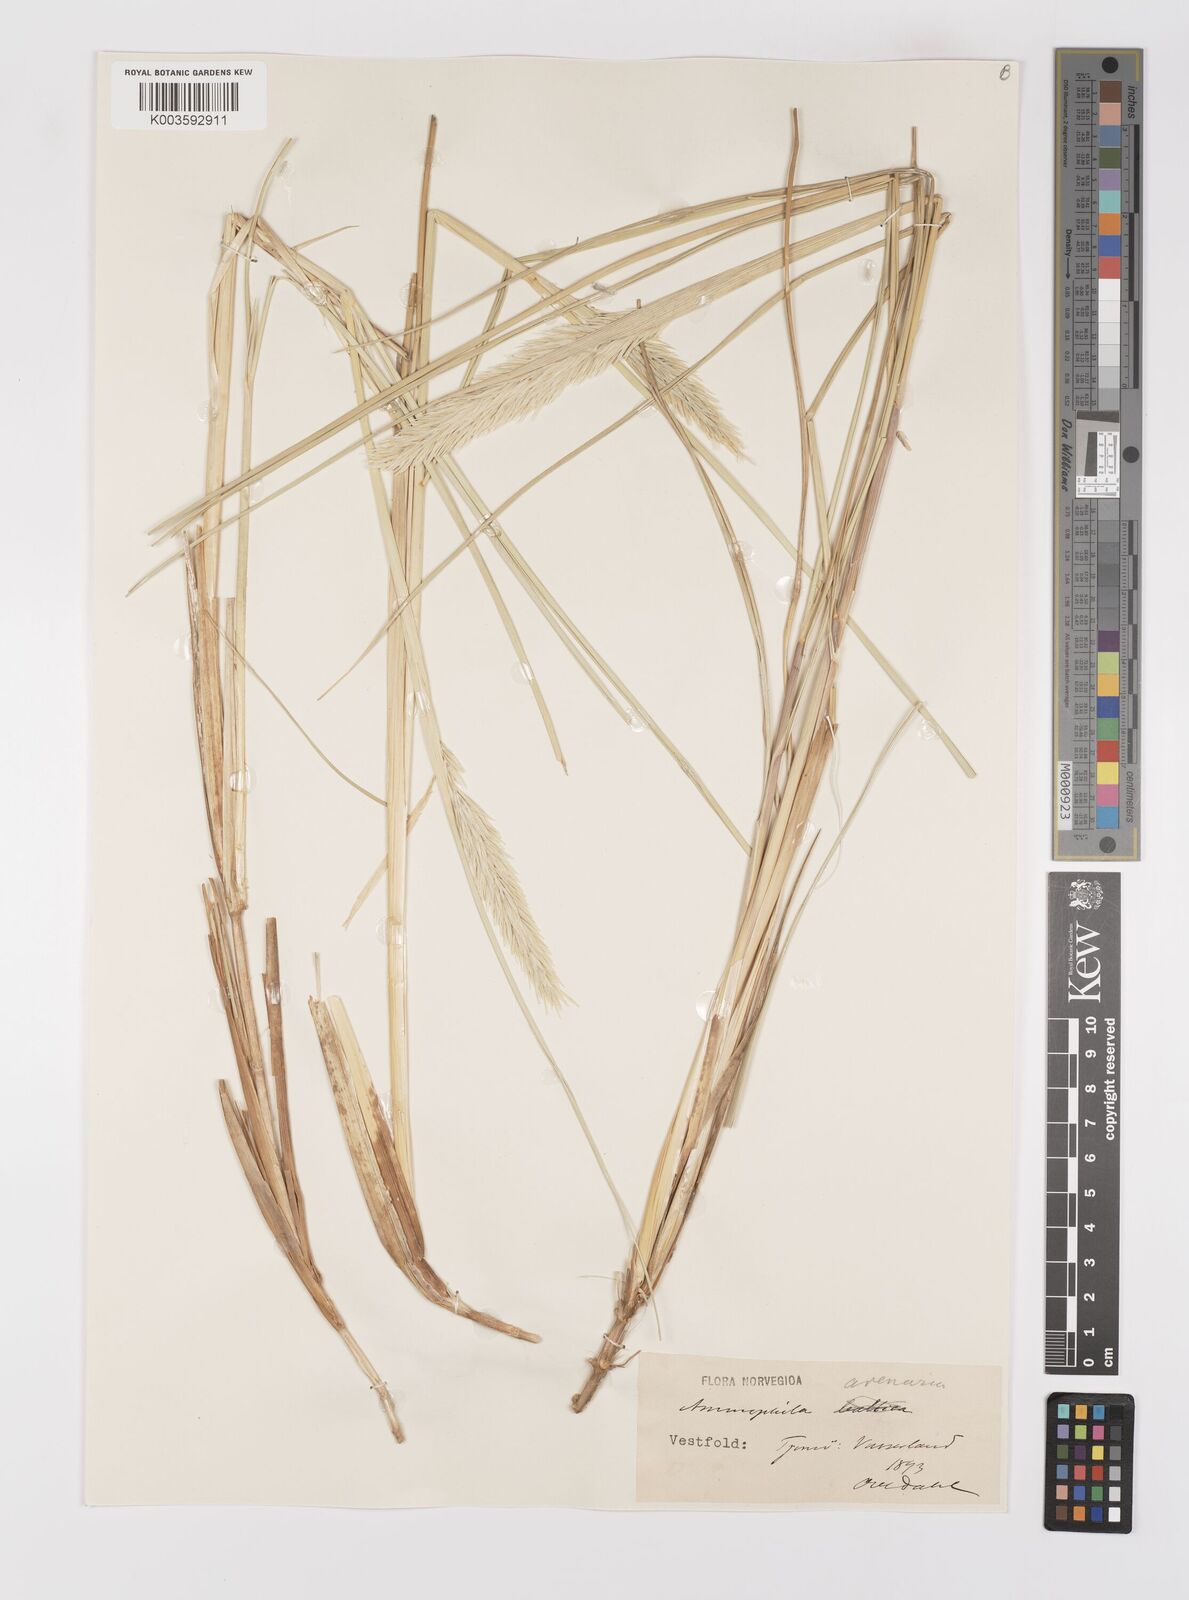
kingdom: Plantae
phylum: Tracheophyta
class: Liliopsida
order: Poales
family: Poaceae
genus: Calamagrostis
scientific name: Calamagrostis arenaria
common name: European beachgrass
